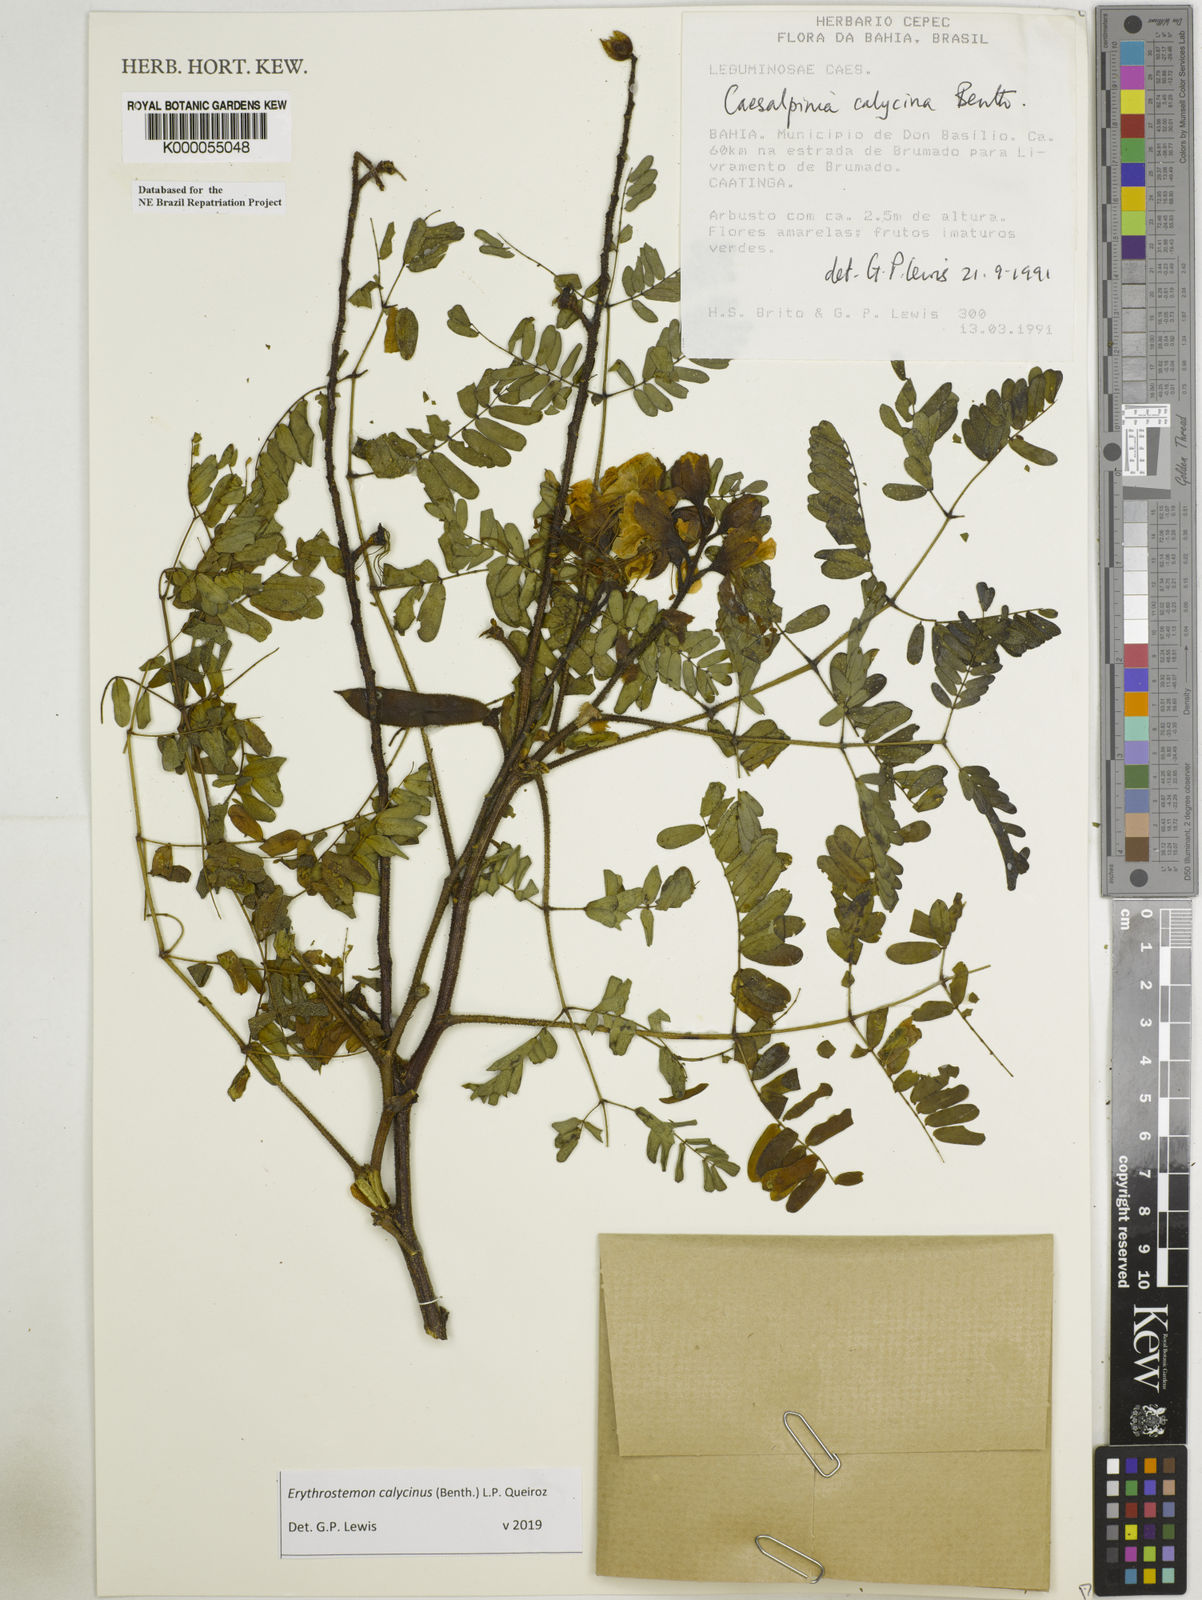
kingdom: Plantae
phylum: Tracheophyta
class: Magnoliopsida
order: Fabales
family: Fabaceae
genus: Erythrostemon
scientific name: Erythrostemon calycinus
